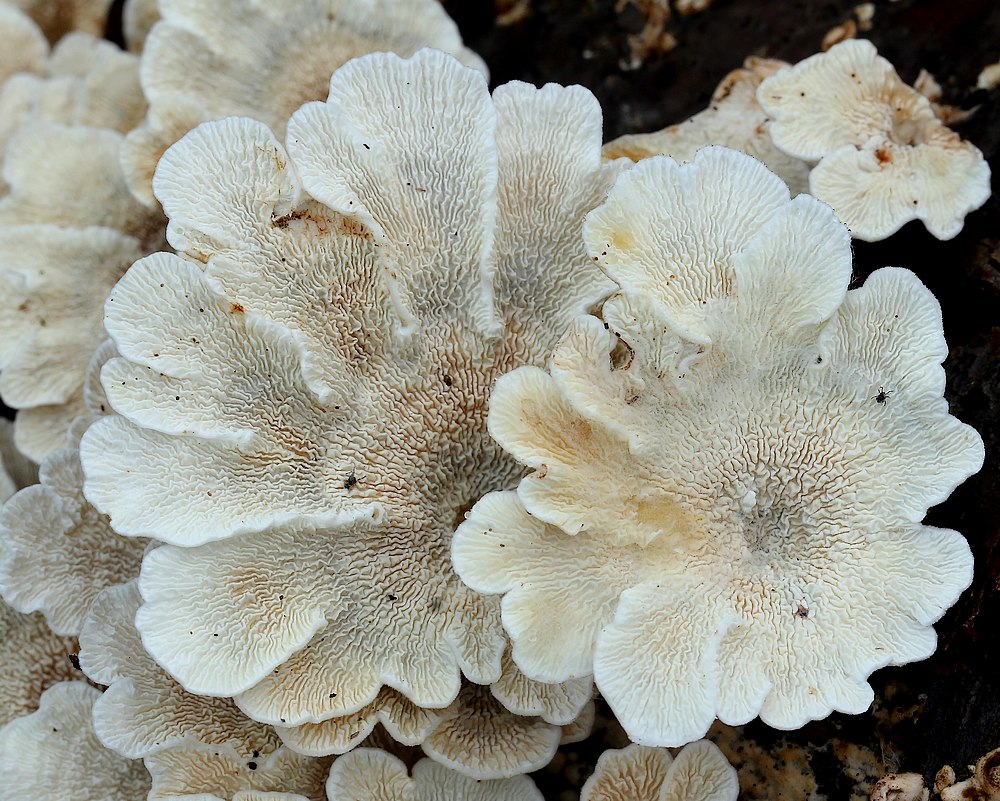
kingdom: Fungi
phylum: Basidiomycota
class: Agaricomycetes
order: Amylocorticiales
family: Amylocorticiaceae
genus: Plicaturopsis
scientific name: Plicaturopsis crispa
